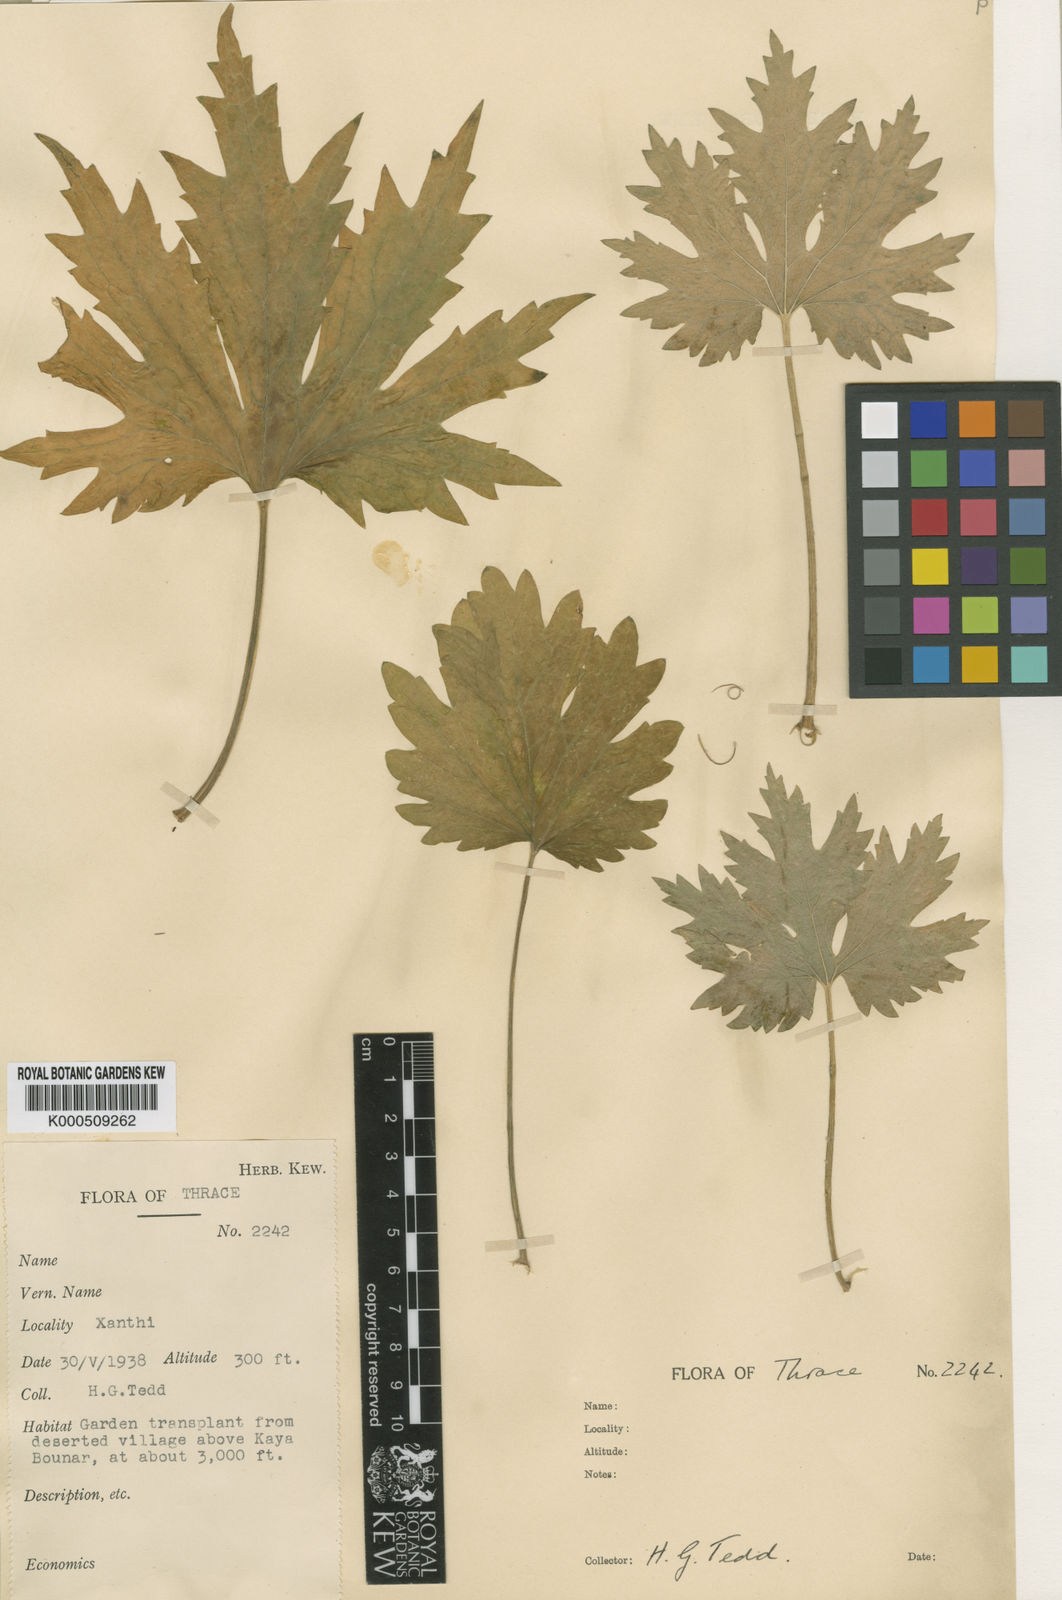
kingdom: Plantae
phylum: Tracheophyta
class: Magnoliopsida
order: Lamiales
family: Lamiaceae
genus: Leonurus
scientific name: Leonurus cardiaca
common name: Motherwort
